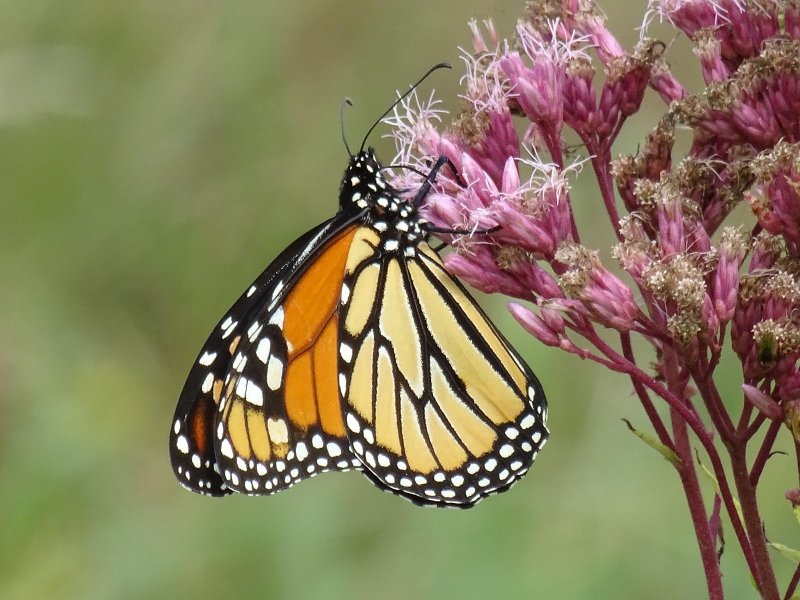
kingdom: Animalia
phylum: Arthropoda
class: Insecta
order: Lepidoptera
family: Nymphalidae
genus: Danaus
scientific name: Danaus plexippus
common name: Monarch
